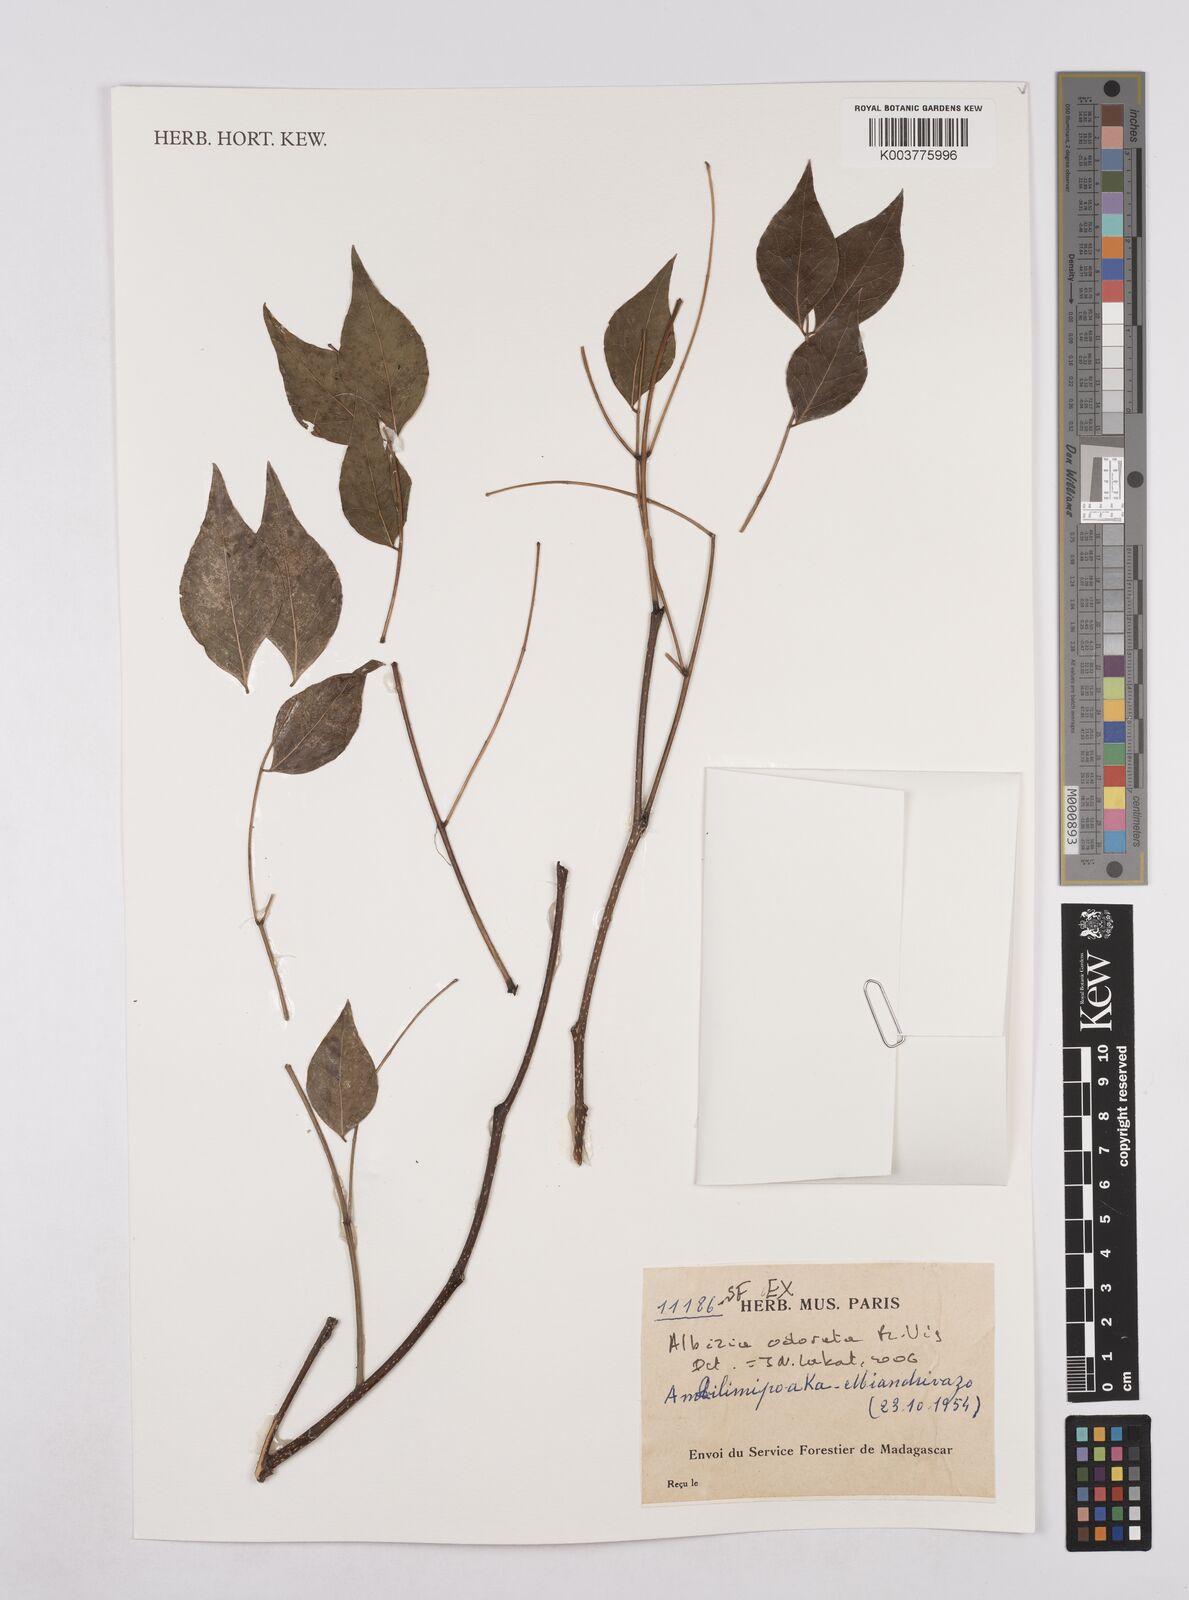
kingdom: Plantae
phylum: Tracheophyta
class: Magnoliopsida
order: Fabales
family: Fabaceae
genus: Albizia
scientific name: Albizia odorata
